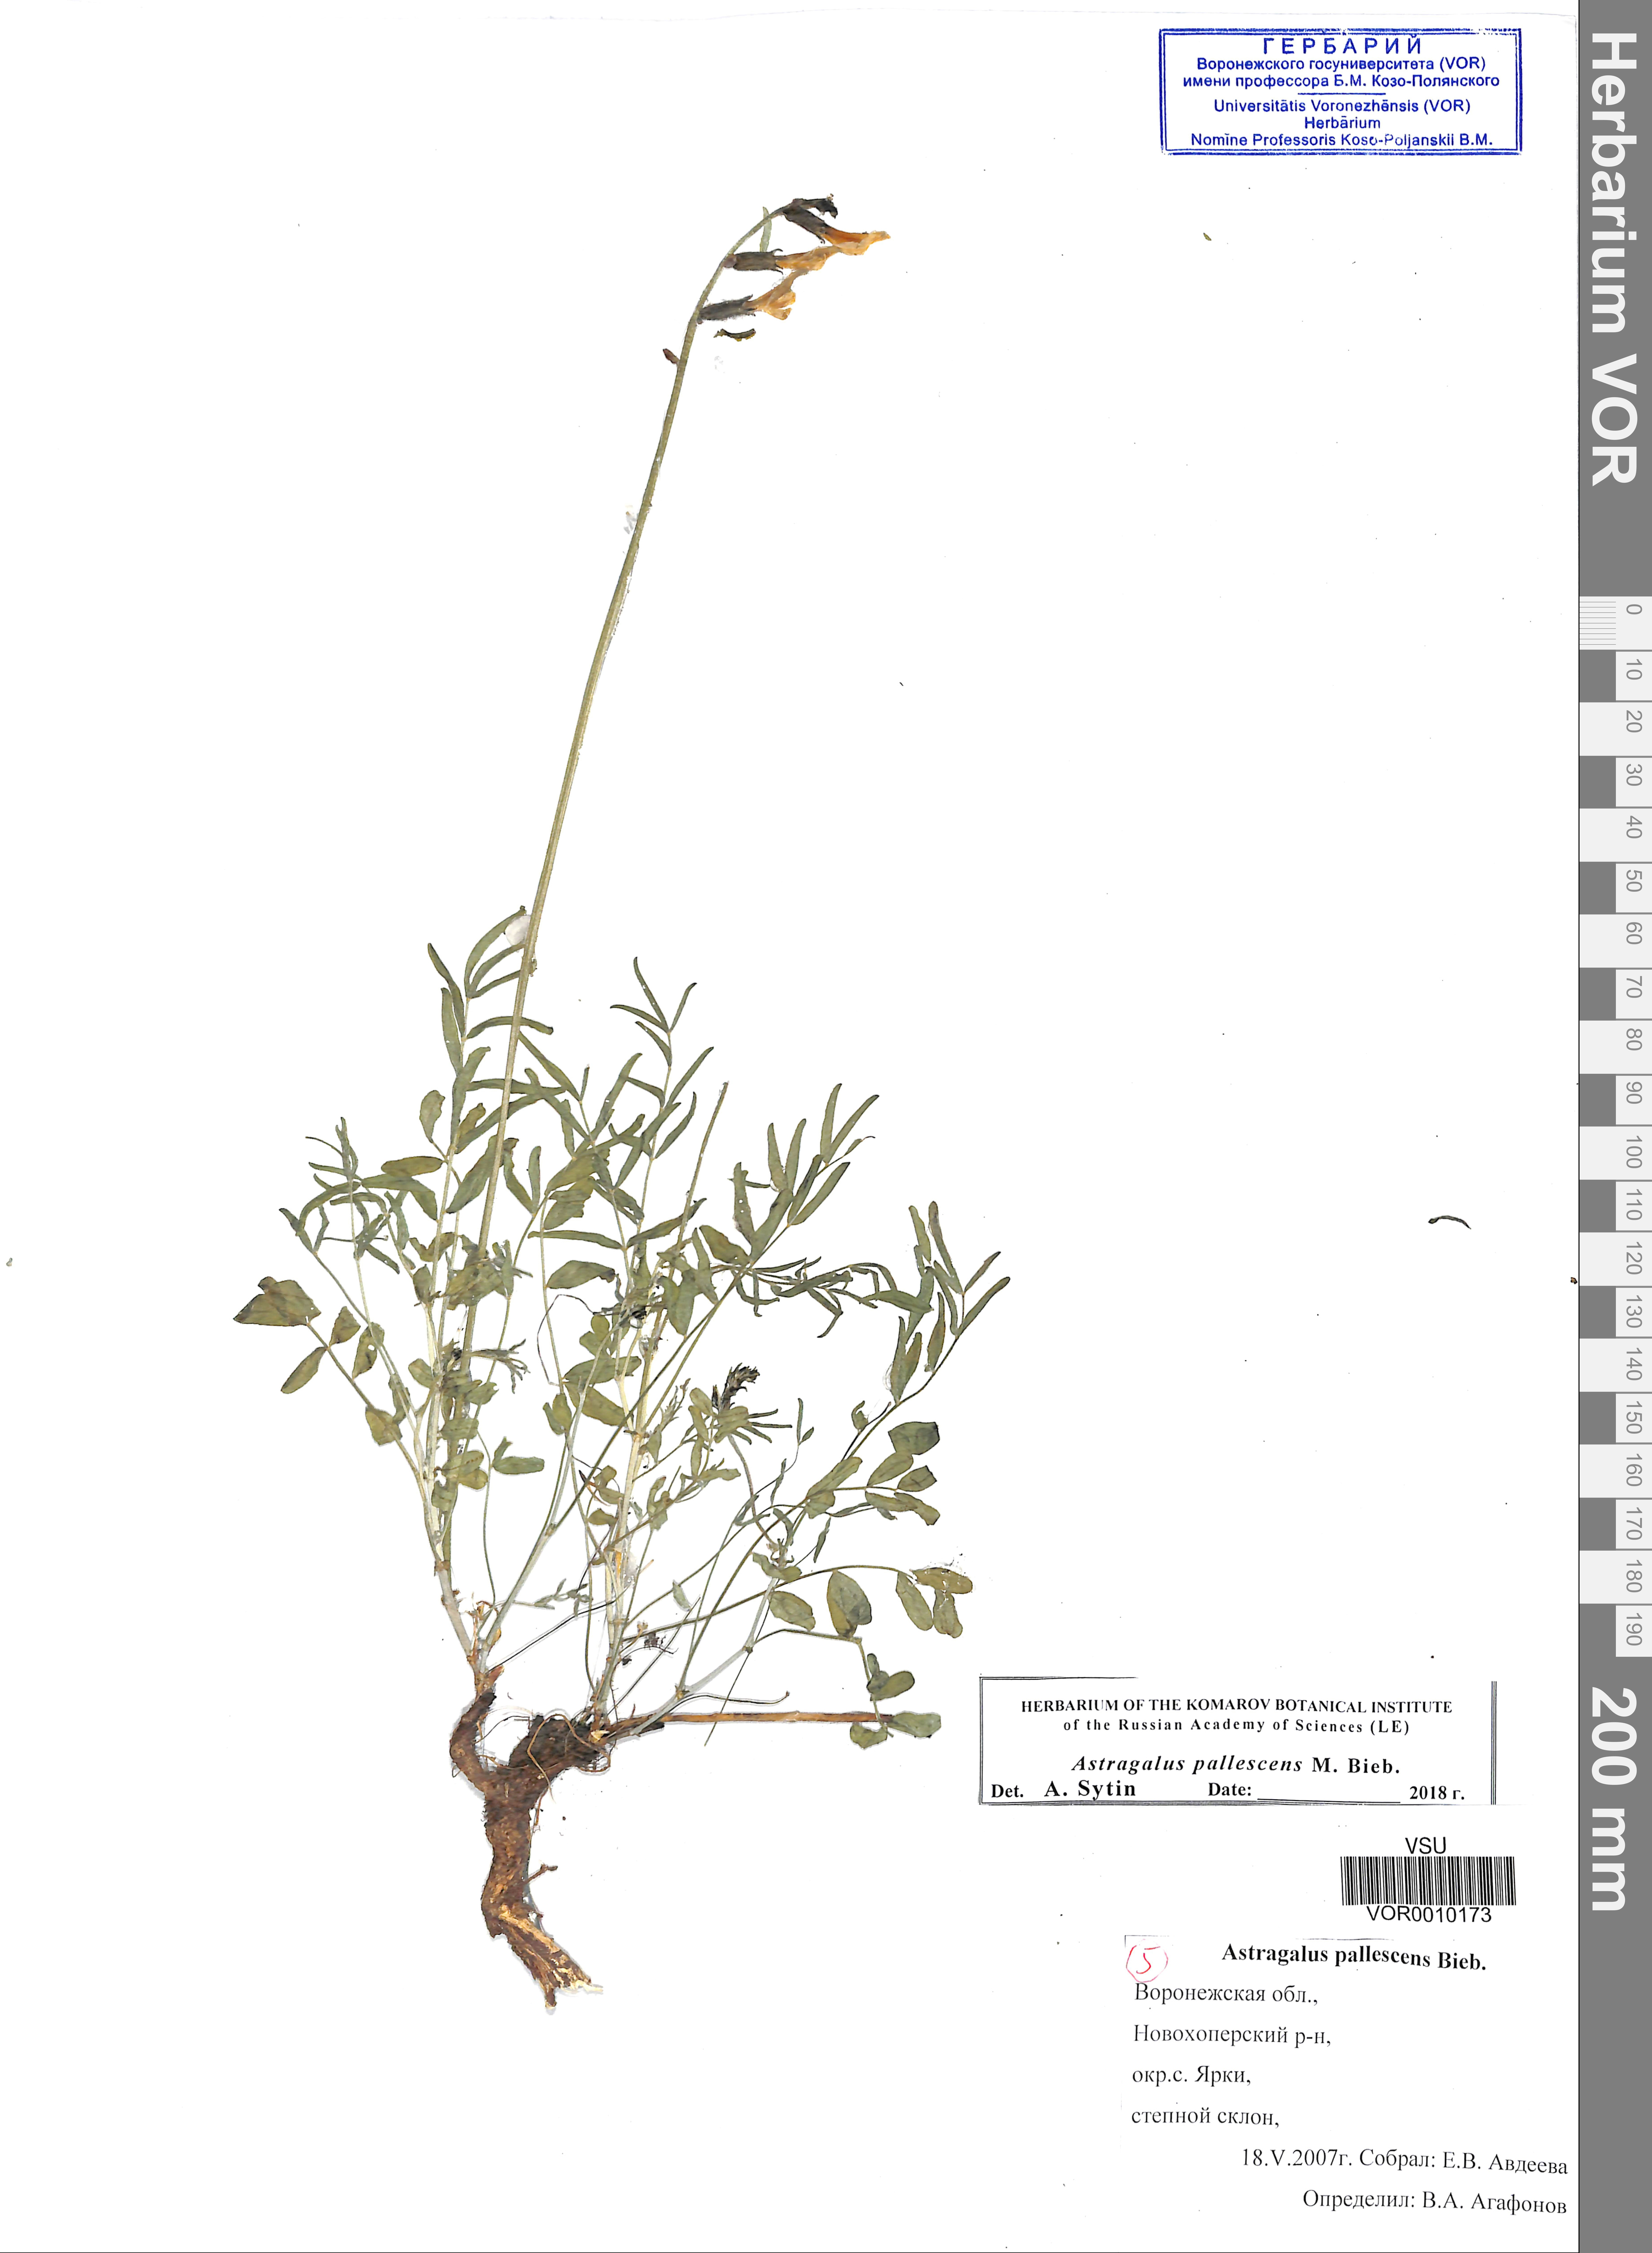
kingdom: Plantae
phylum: Tracheophyta
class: Magnoliopsida
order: Fabales
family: Fabaceae
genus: Astragalus
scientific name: Astragalus pallescens
